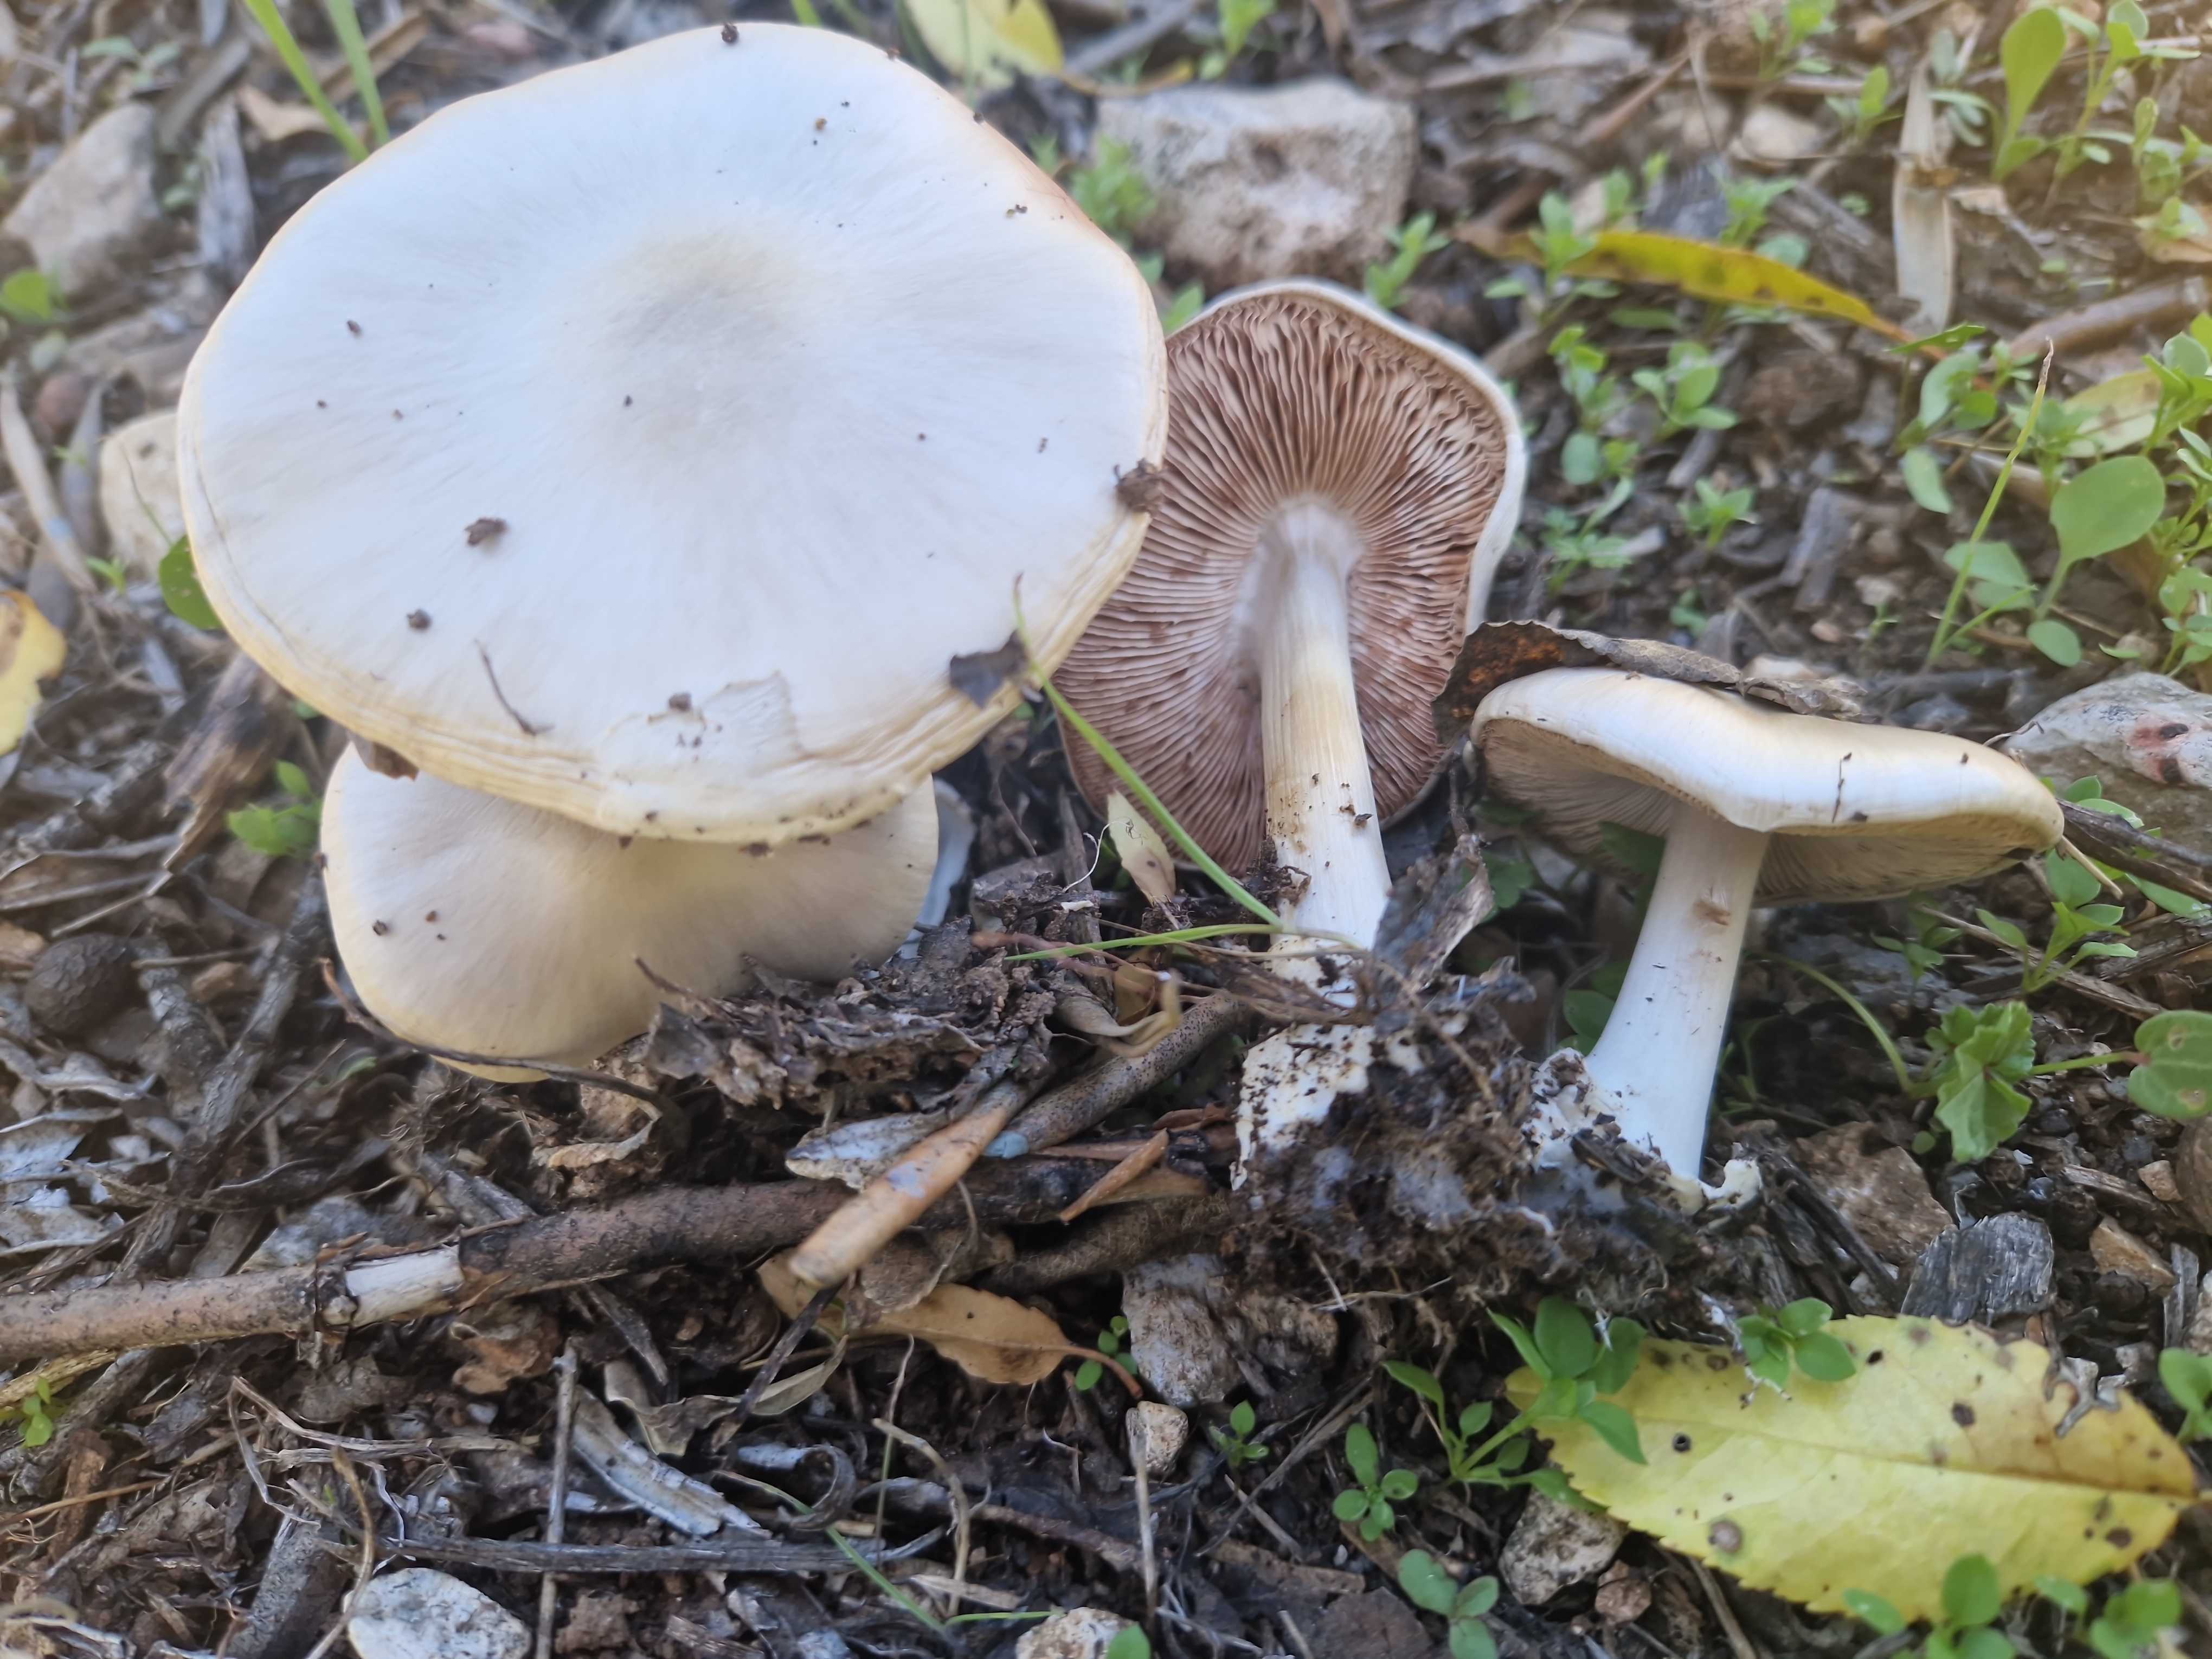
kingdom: Fungi
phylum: Basidiomycota
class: Agaricomycetes
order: Agaricales
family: Pluteaceae
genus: Volvopluteus
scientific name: Volvopluteus gloiocephalus
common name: høj posesvamp
